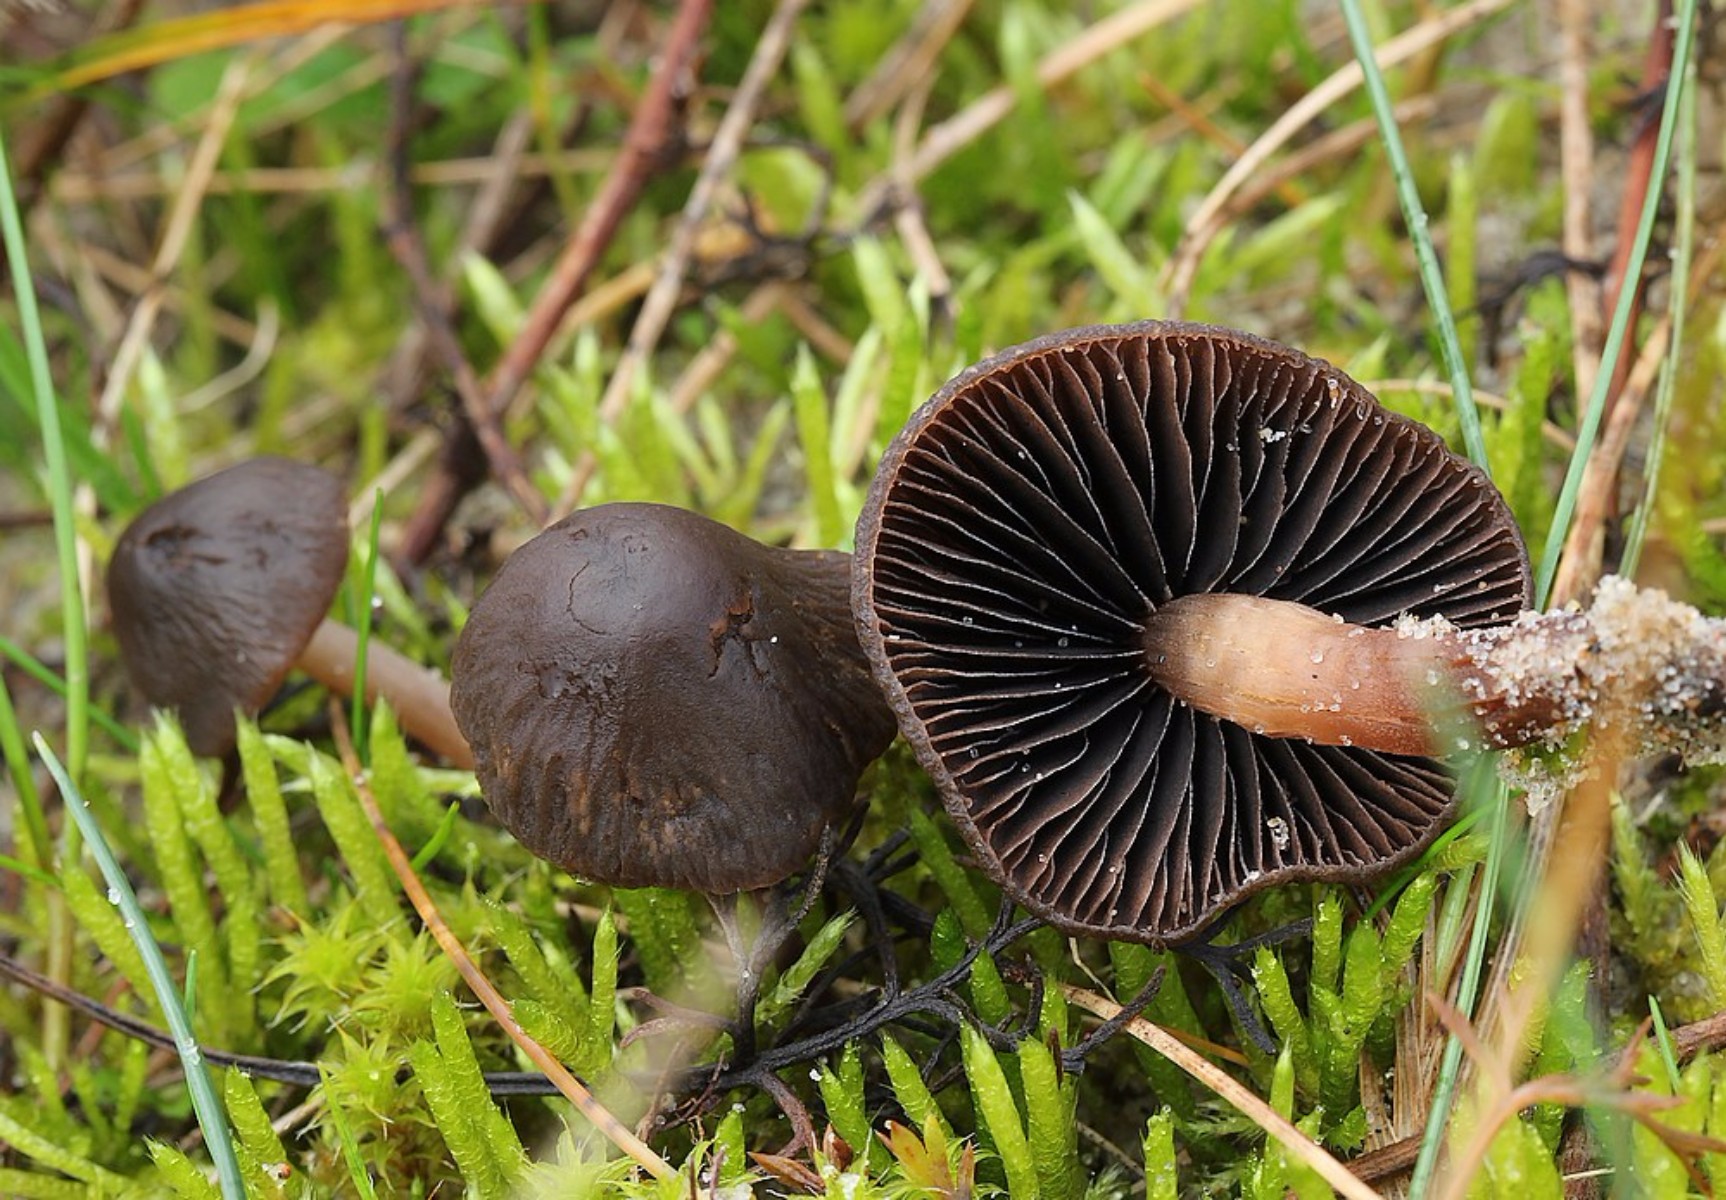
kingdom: Fungi
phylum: Basidiomycota
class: Agaricomycetes
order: Agaricales
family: Bolbitiaceae
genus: Panaeolus
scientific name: Panaeolus
